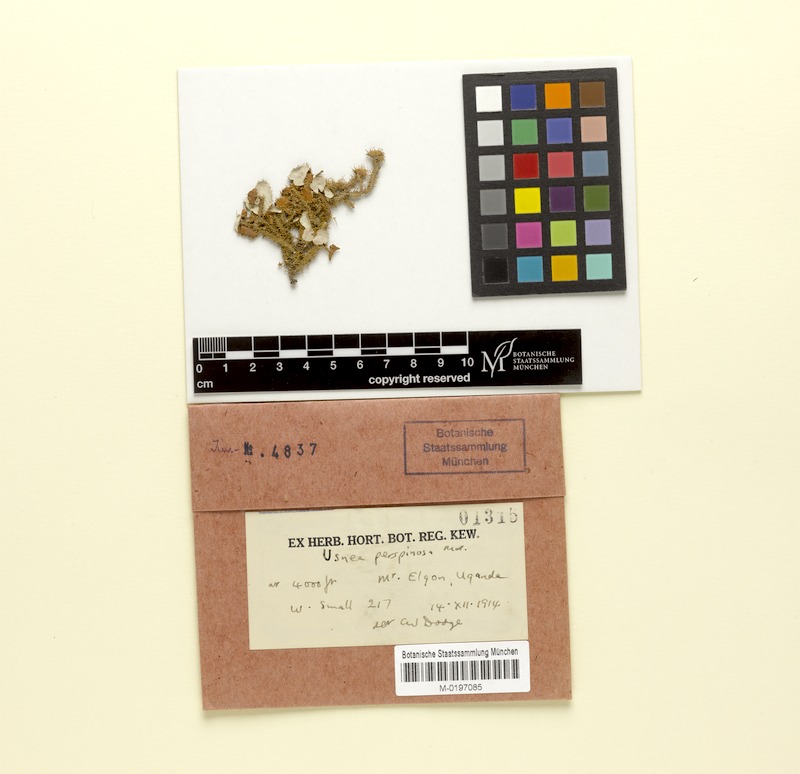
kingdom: Fungi
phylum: Ascomycota
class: Lecanoromycetes
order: Lecanorales
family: Parmeliaceae
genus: Usnea
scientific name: Usnea perspinosa
